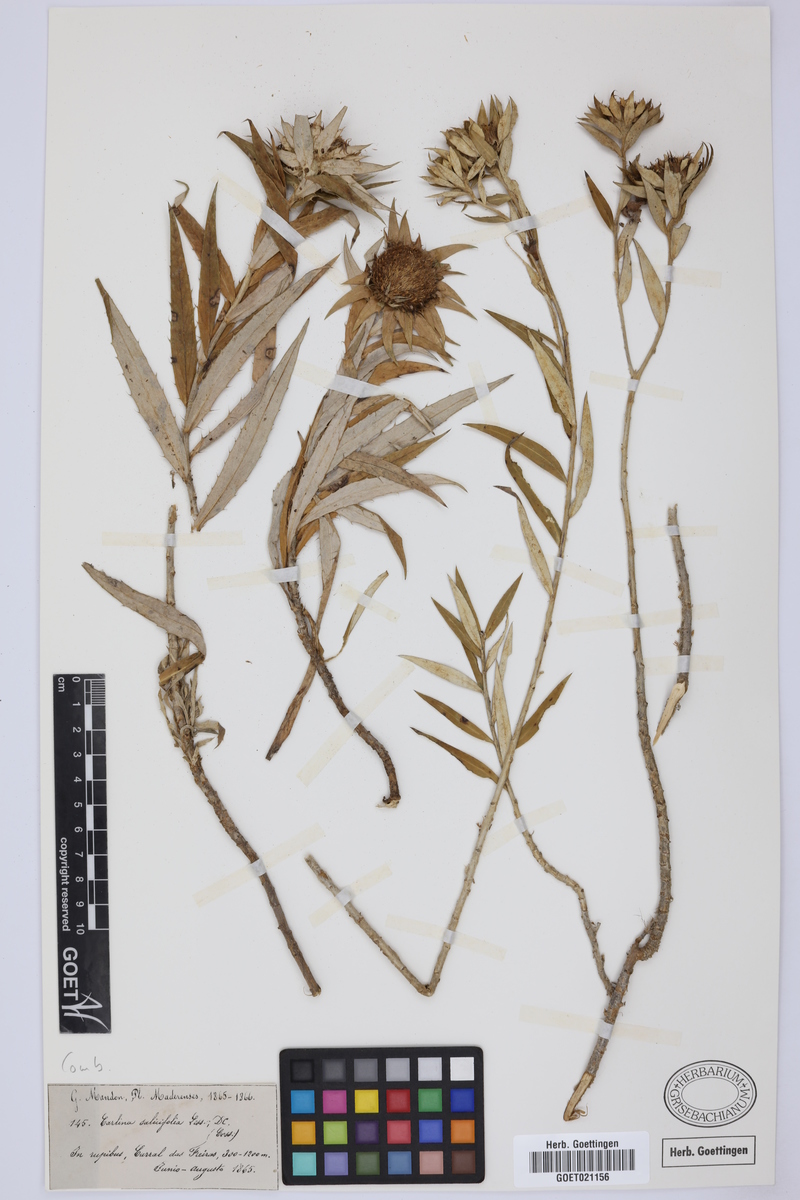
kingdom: Plantae
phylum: Tracheophyta
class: Magnoliopsida
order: Asterales
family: Asteraceae
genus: Carlina
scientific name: Carlina salicifolia
